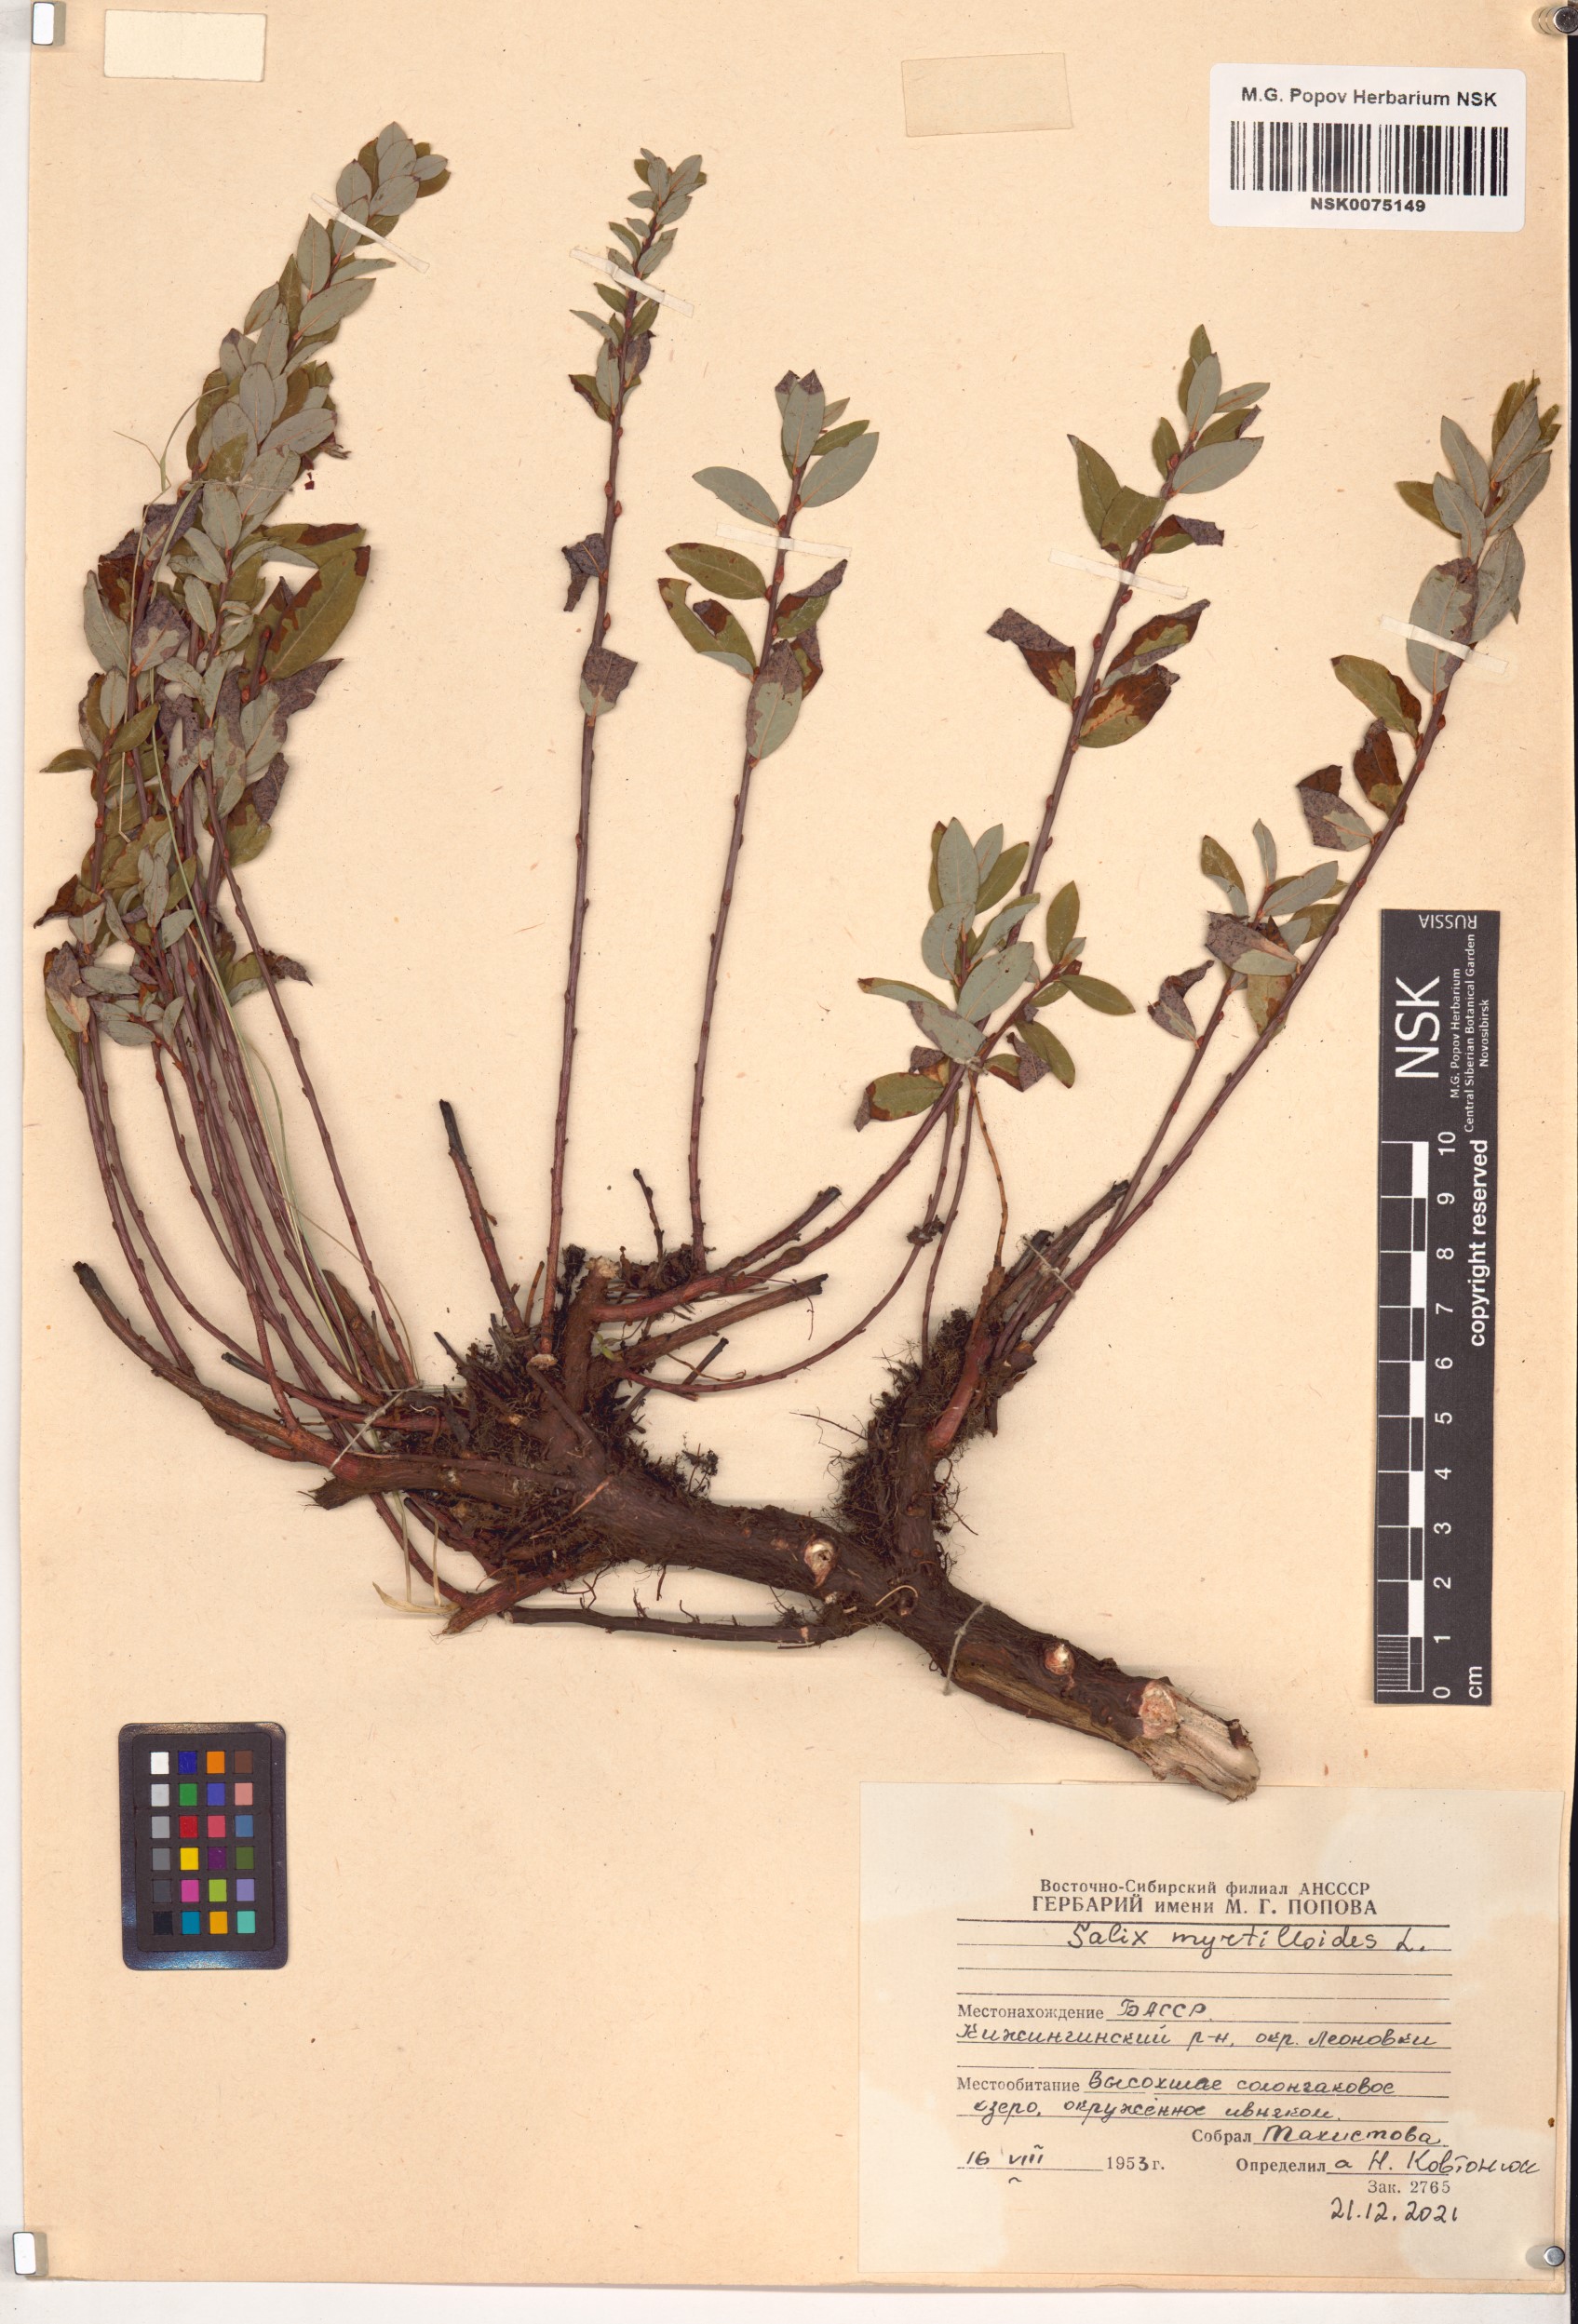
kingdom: Plantae
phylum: Tracheophyta
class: Magnoliopsida
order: Malpighiales
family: Salicaceae
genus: Salix
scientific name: Salix myrtilloides
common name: Myrtle-leaved willow
